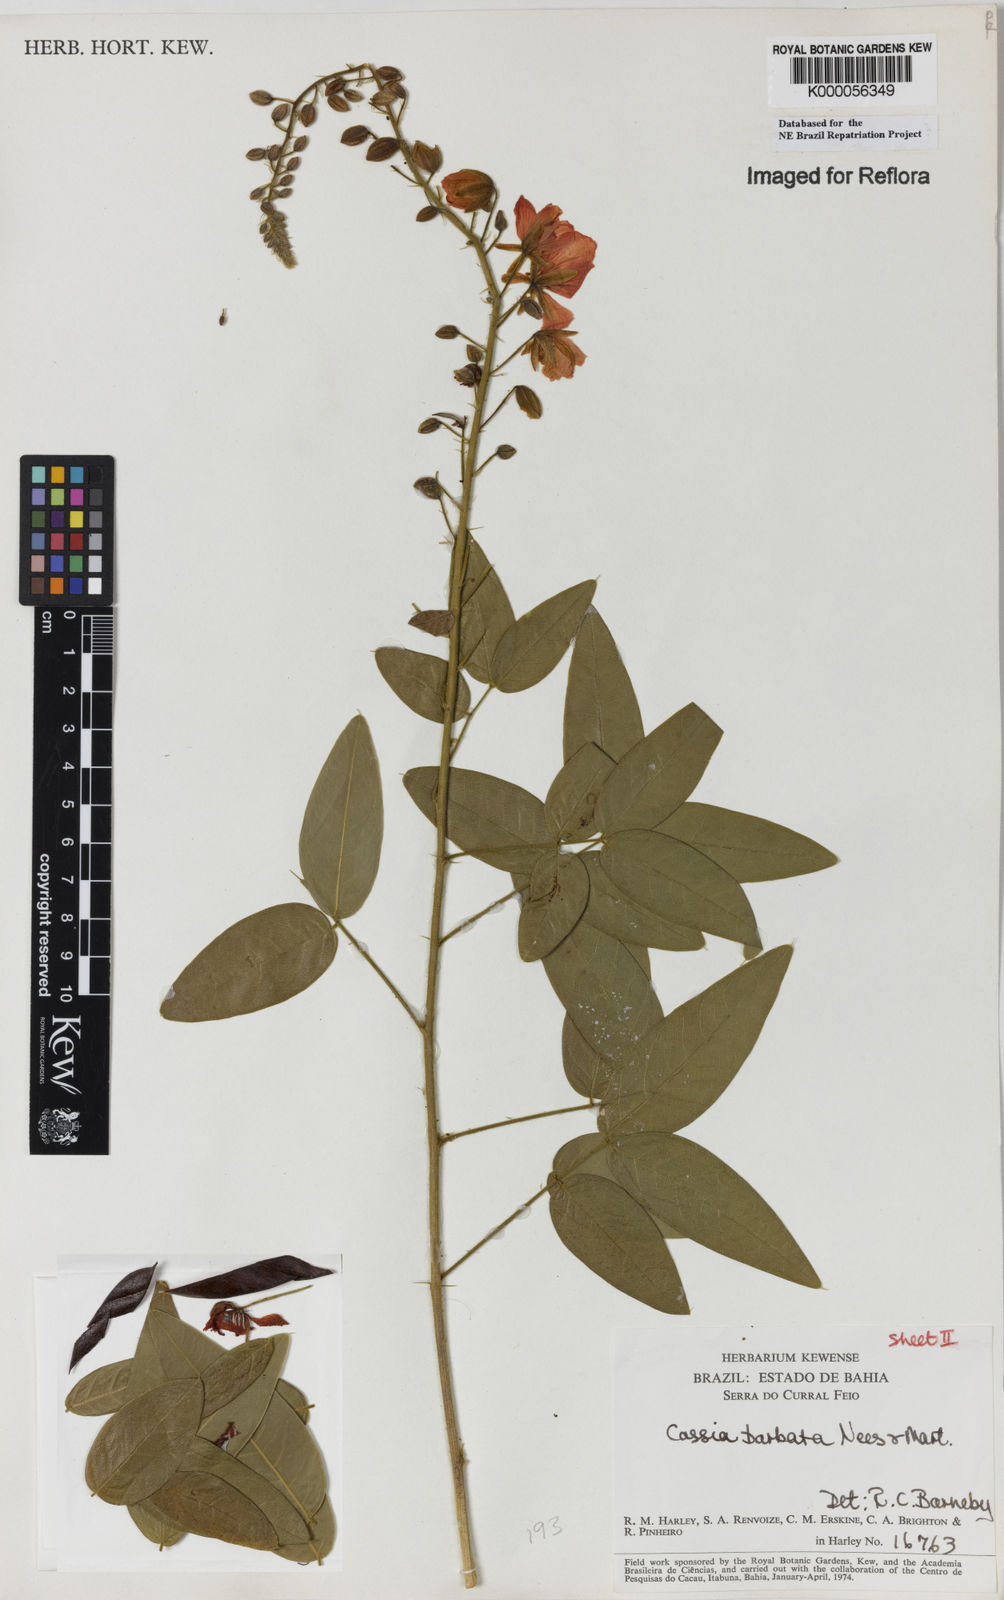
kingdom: Plantae
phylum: Tracheophyta
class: Magnoliopsida
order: Fabales
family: Fabaceae
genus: Chamaecrista
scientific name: Chamaecrista barbata
